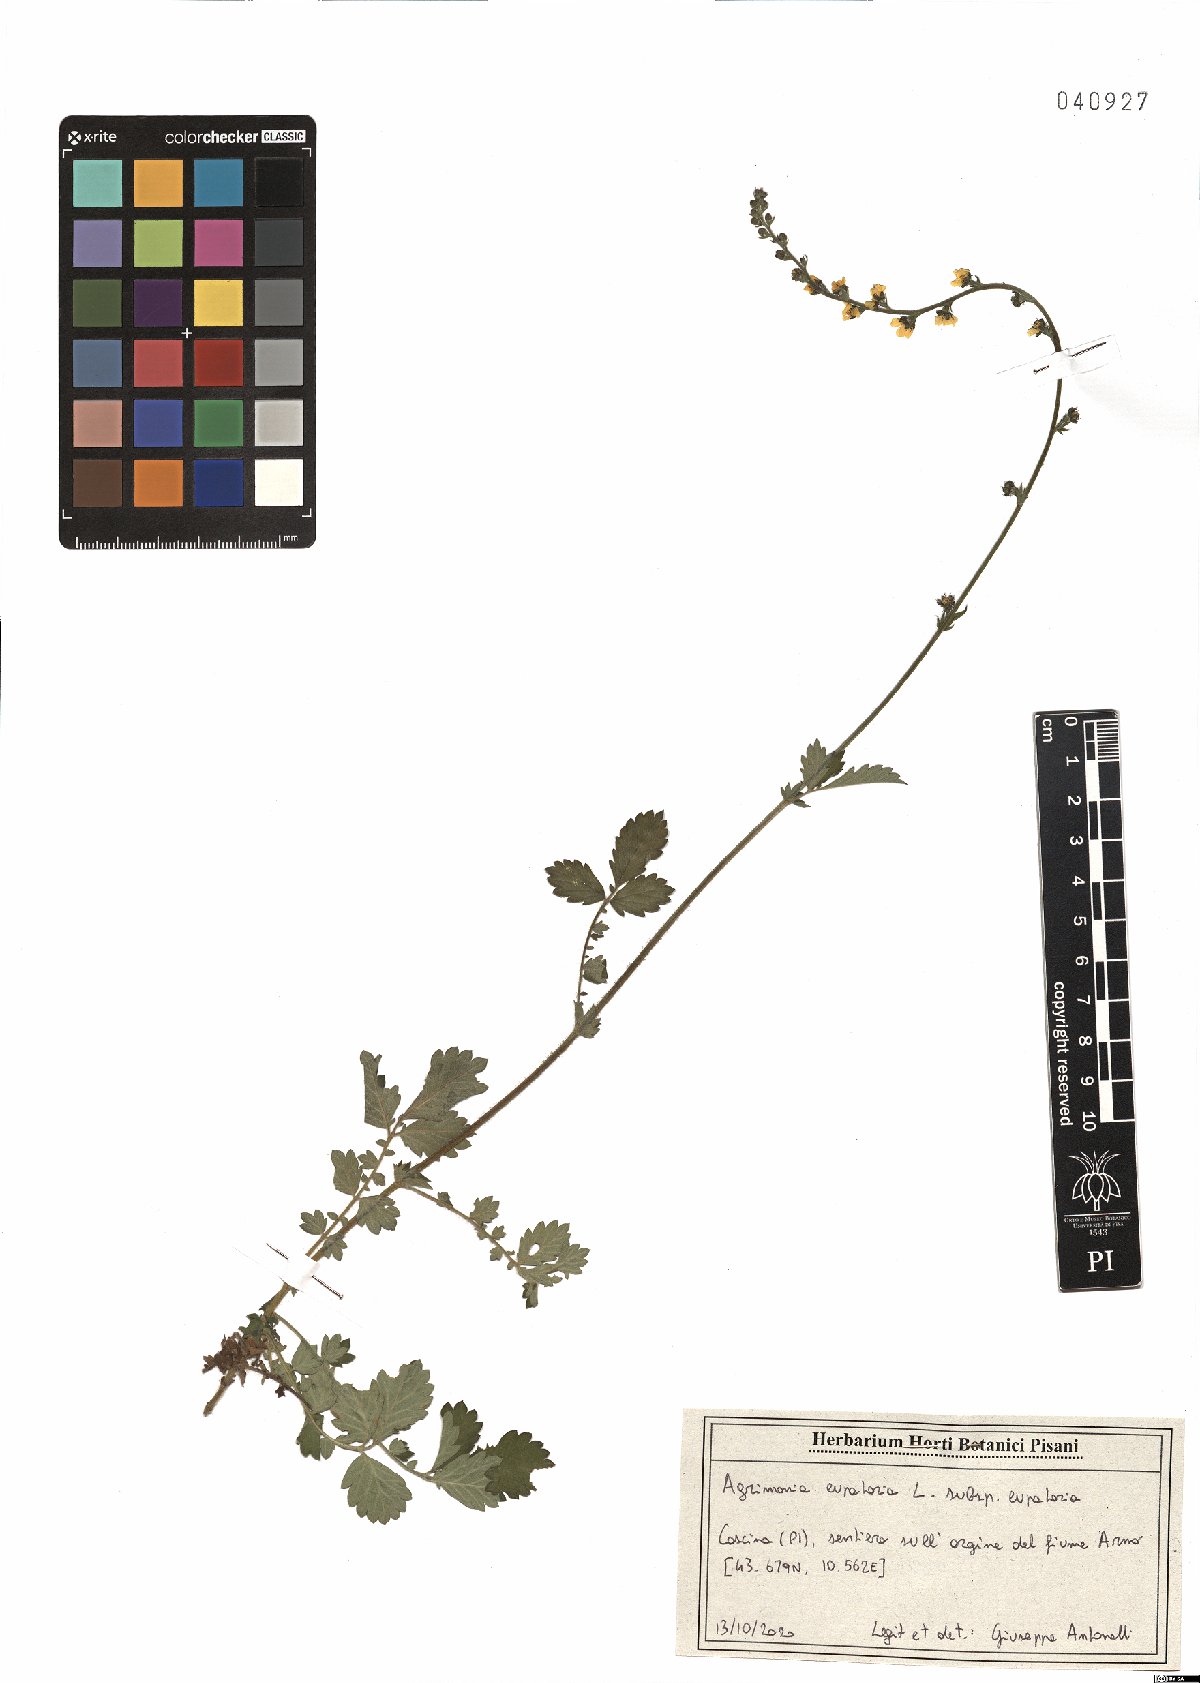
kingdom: Plantae
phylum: Tracheophyta
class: Magnoliopsida
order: Rosales
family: Rosaceae
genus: Agrimonia
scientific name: Agrimonia eupatoria
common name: Agrimony
